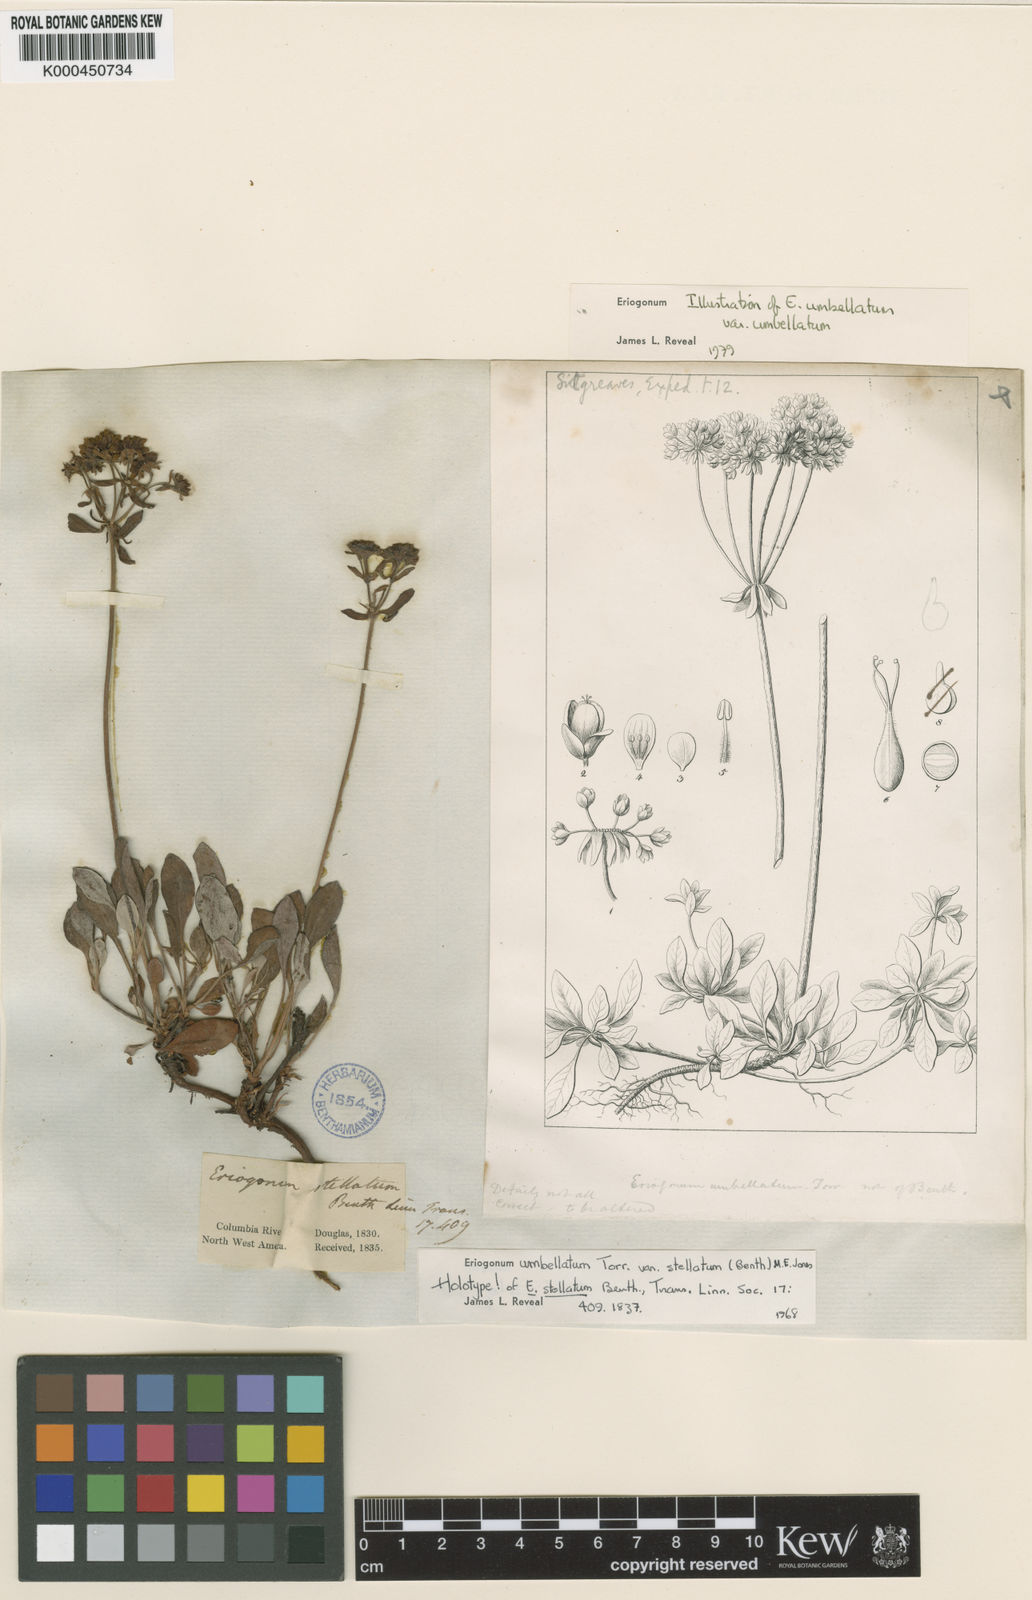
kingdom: Plantae
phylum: Tracheophyta
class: Magnoliopsida
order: Caryophyllales
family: Polygonaceae
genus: Eriogonum
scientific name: Eriogonum umbellatum
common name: Sulfur-buckwheat
